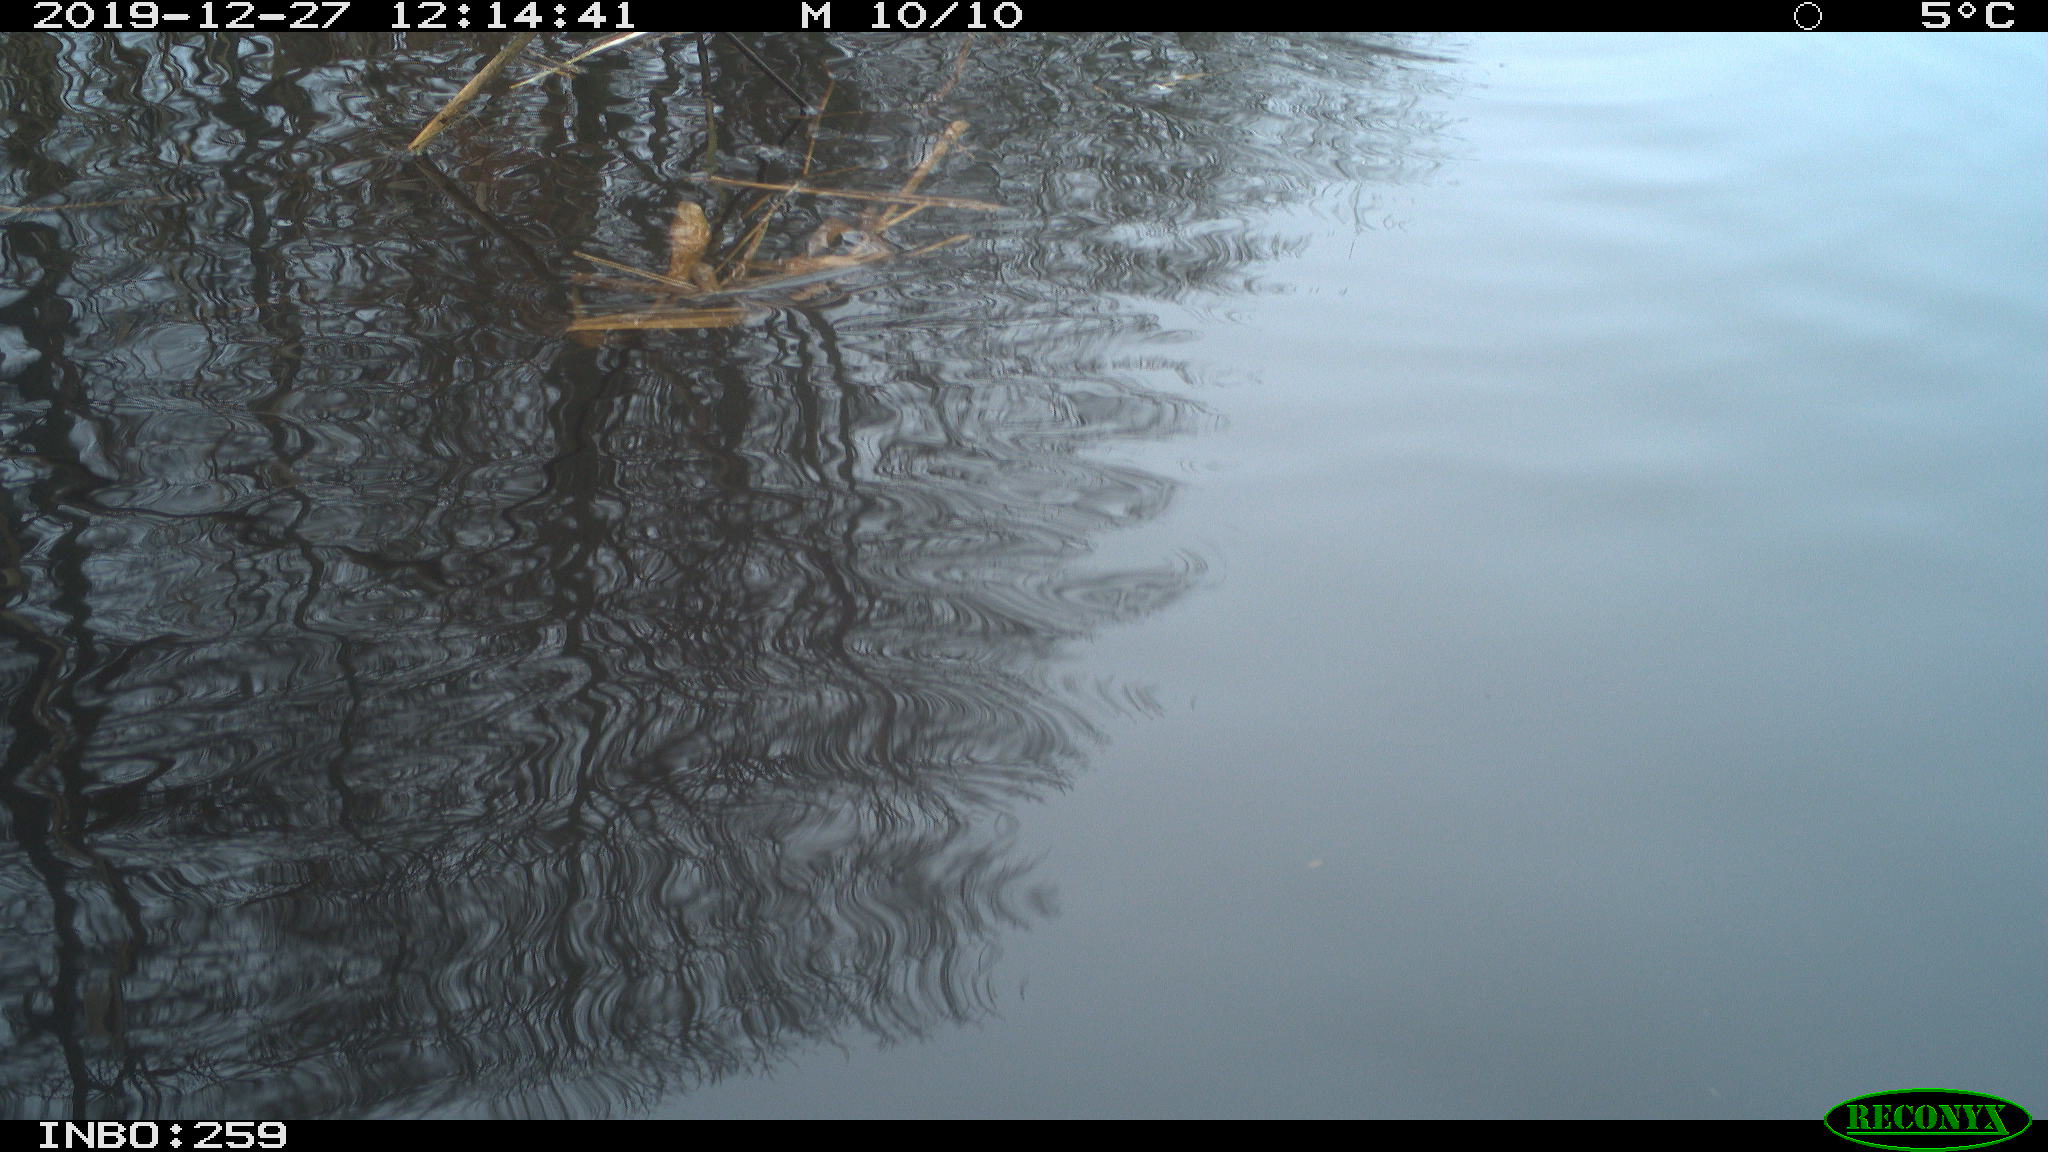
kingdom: Animalia
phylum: Chordata
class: Aves
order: Gruiformes
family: Rallidae
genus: Gallinula
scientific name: Gallinula chloropus
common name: Common moorhen
